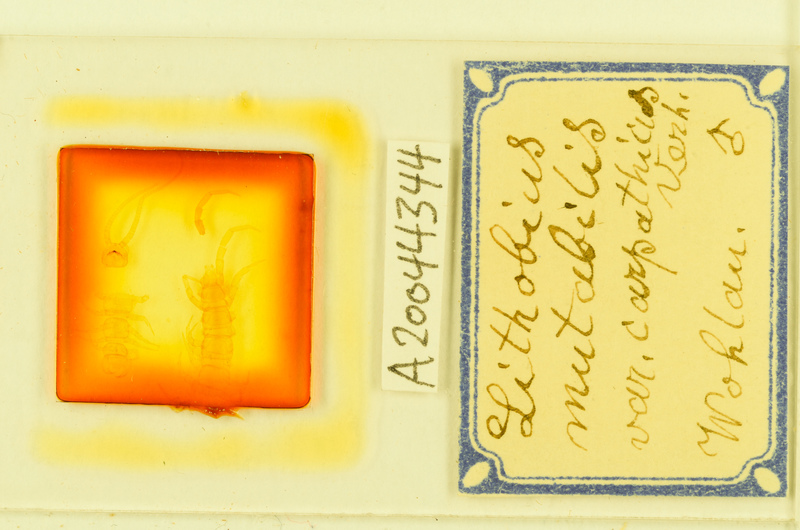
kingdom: Animalia
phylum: Arthropoda
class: Chilopoda
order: Lithobiomorpha
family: Lithobiidae
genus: Lithobius
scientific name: Lithobius mutabilis
